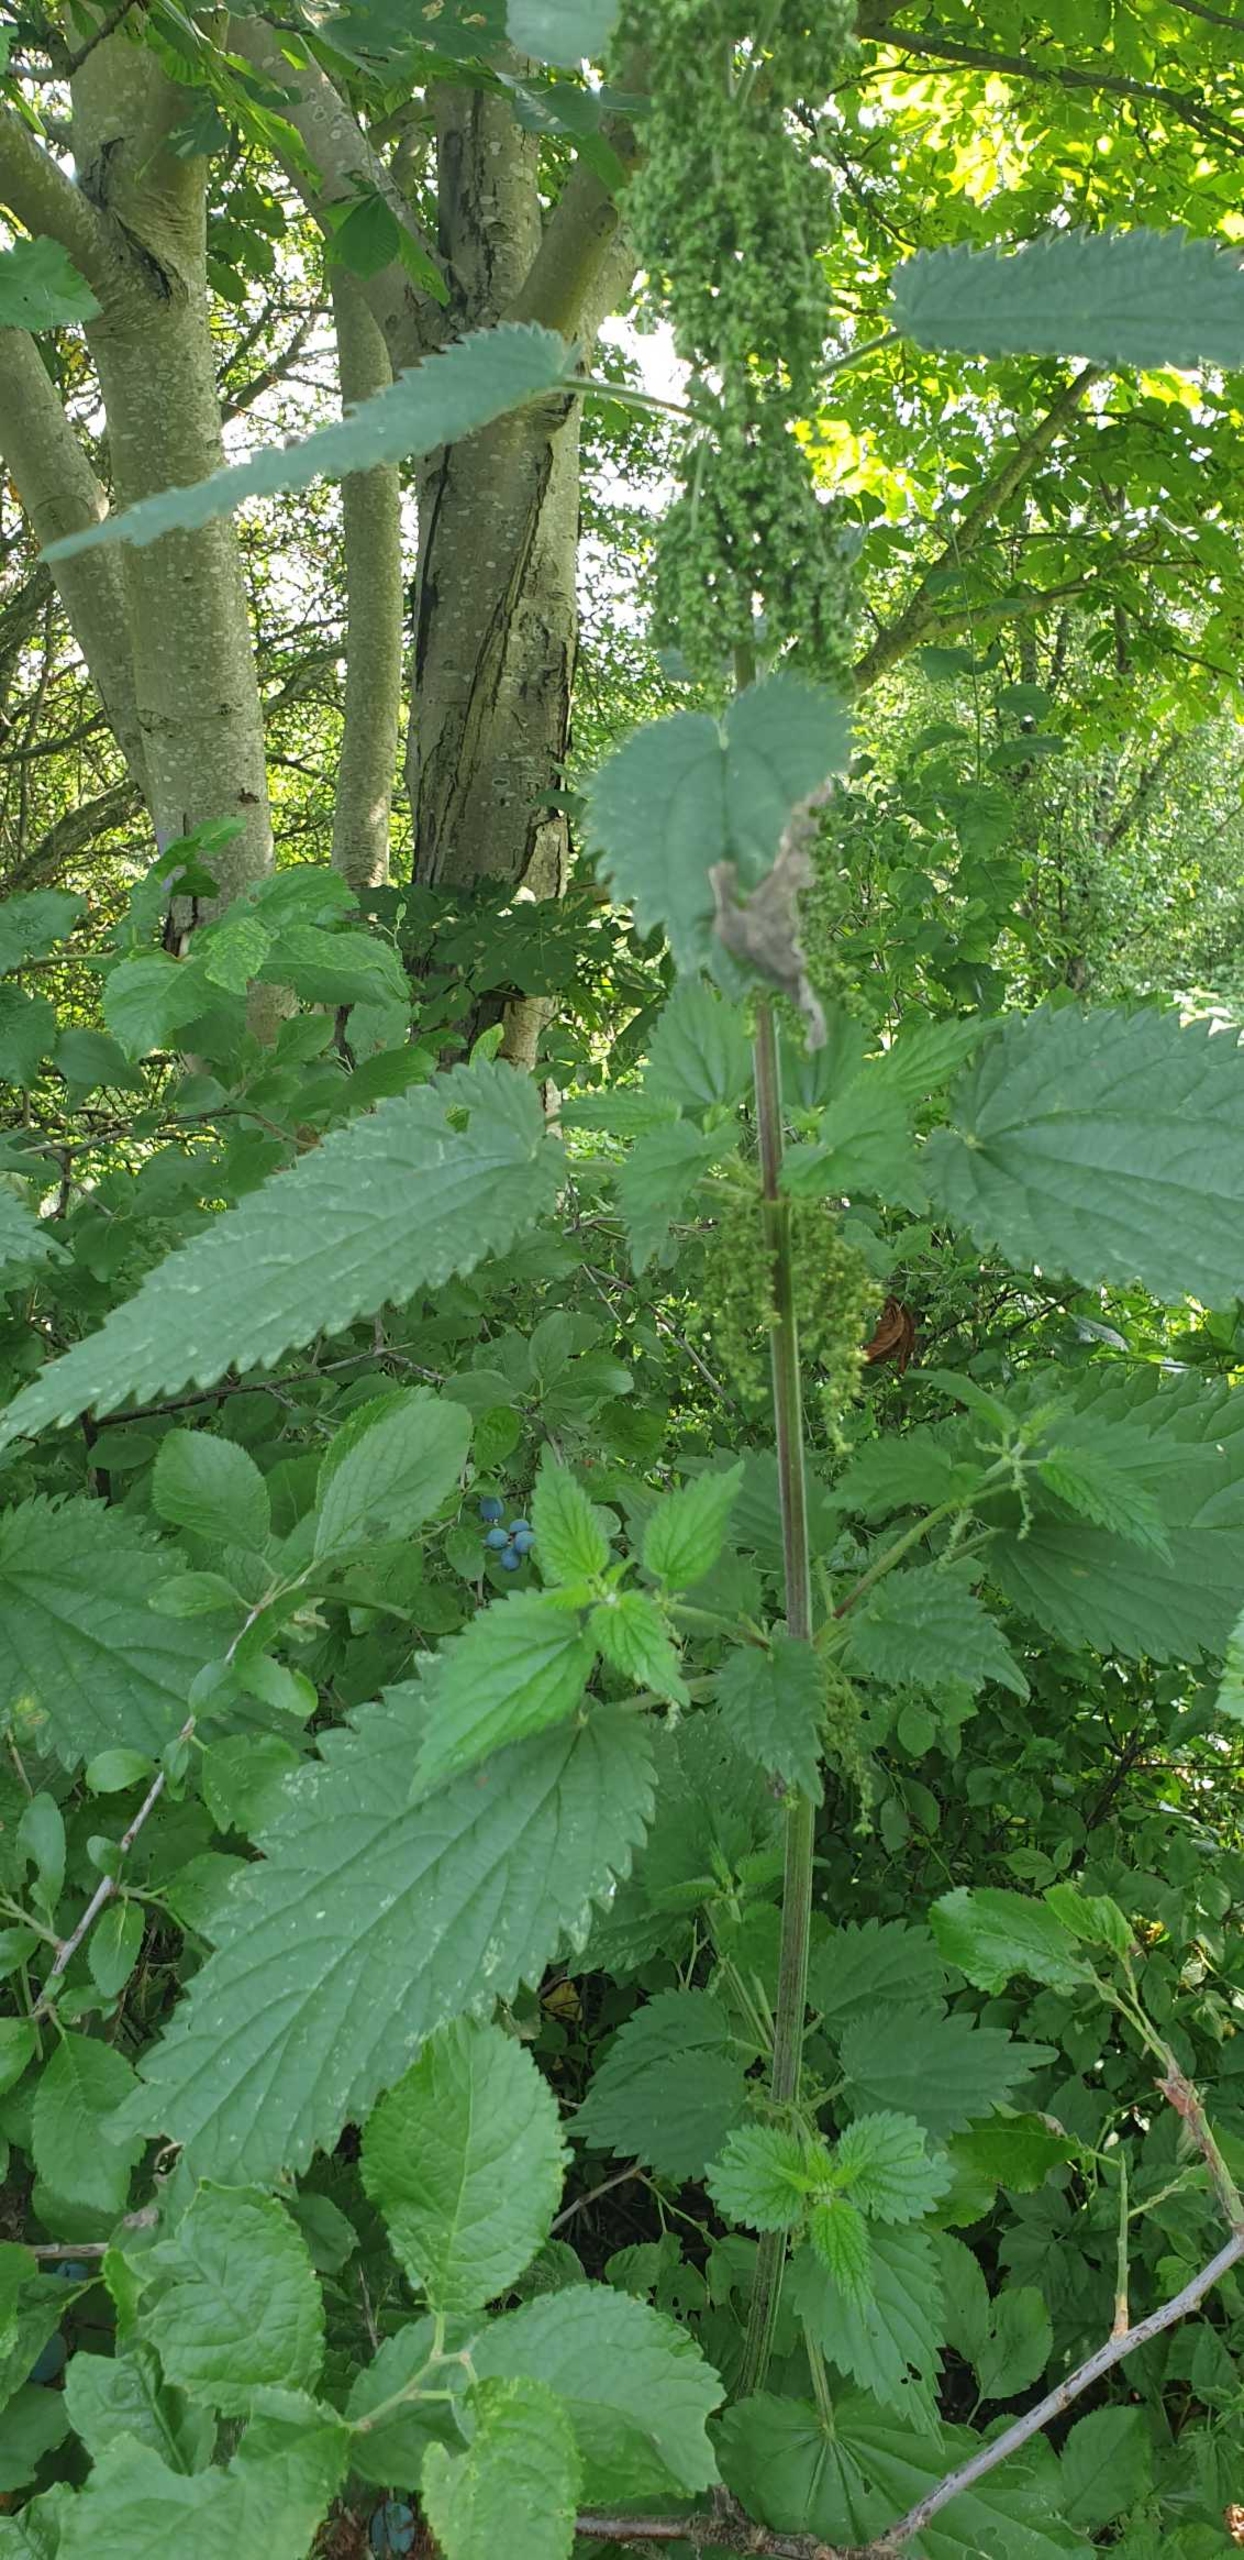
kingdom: Plantae
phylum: Tracheophyta
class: Magnoliopsida
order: Rosales
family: Urticaceae
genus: Urtica
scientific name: Urtica dioica
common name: Stor nælde
